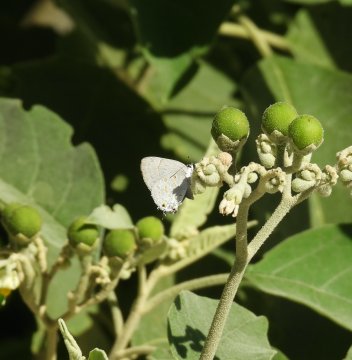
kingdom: Animalia
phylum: Arthropoda
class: Insecta
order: Lepidoptera
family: Lycaenidae
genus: Tmolus
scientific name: Tmolus echion
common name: Red-spotted Hairstreak
